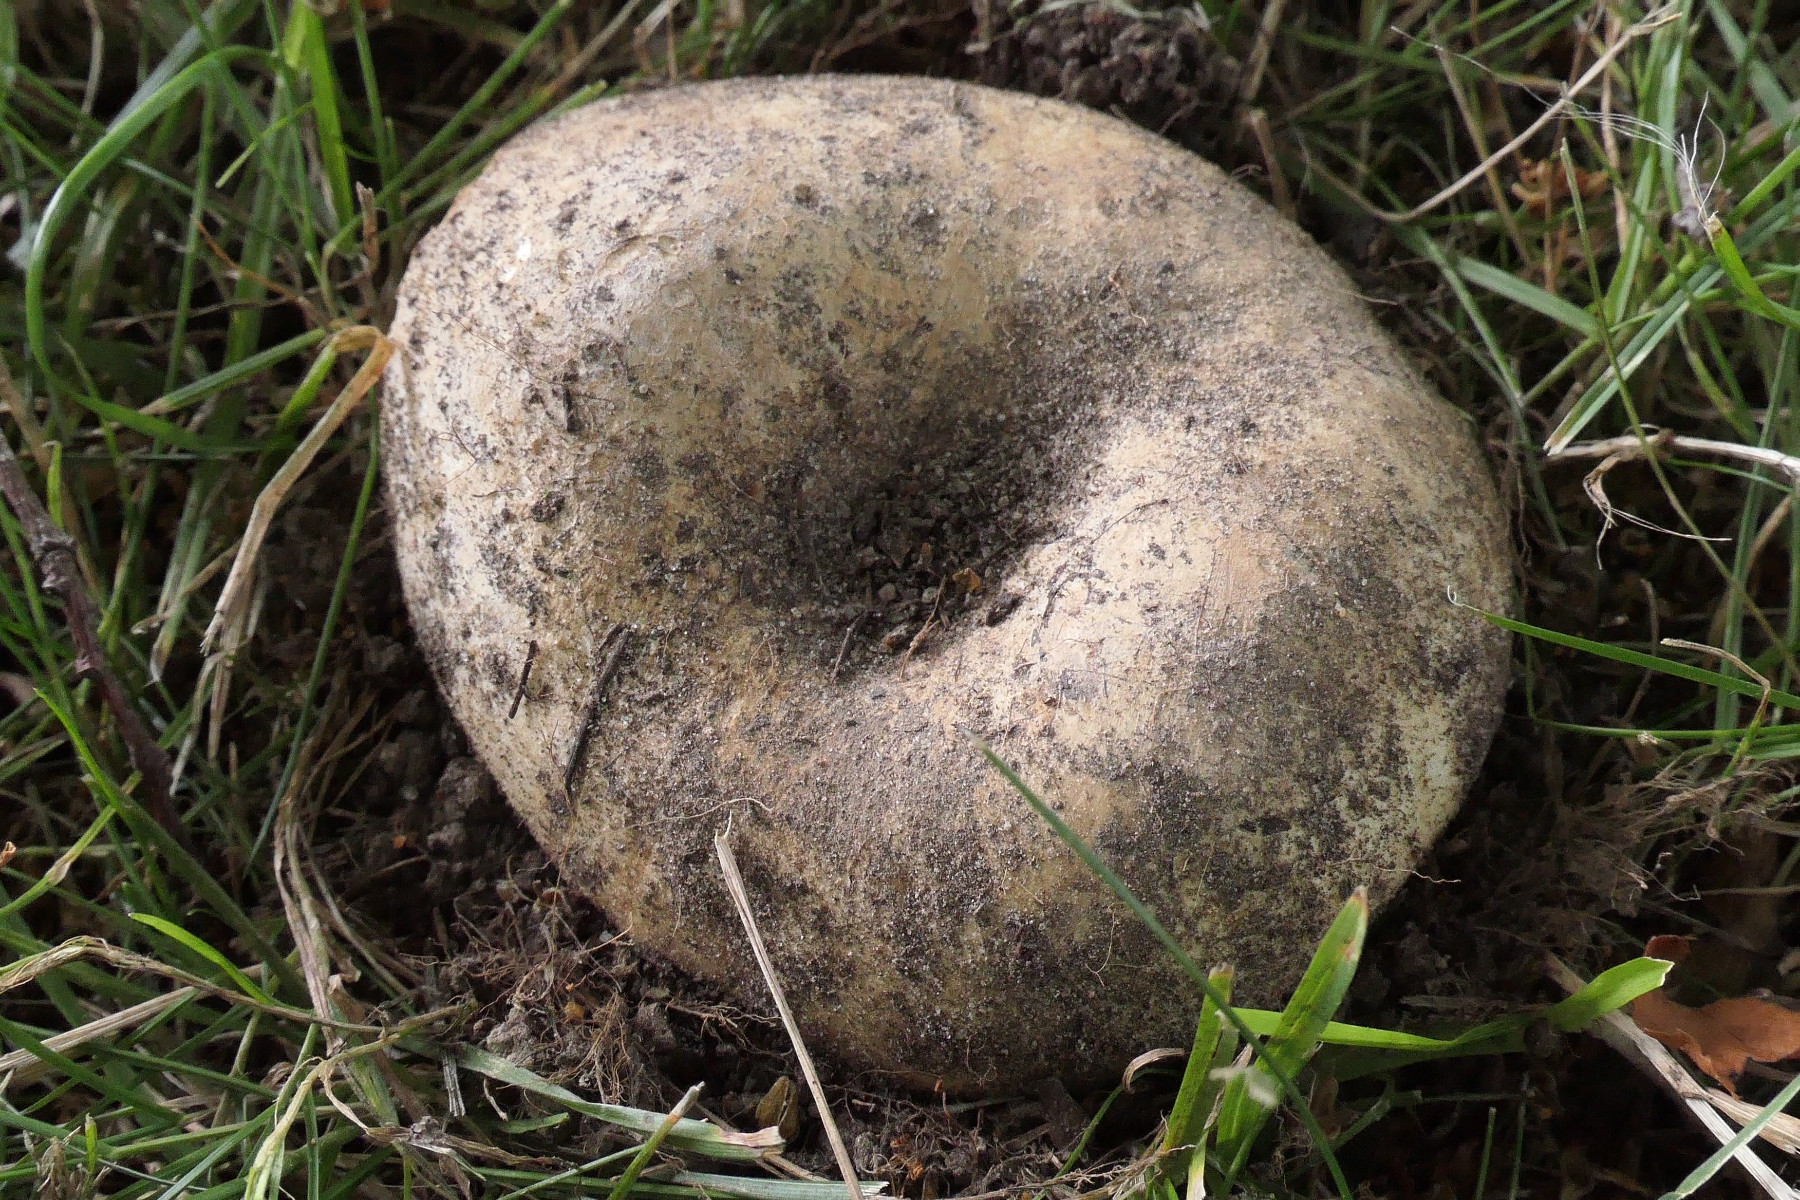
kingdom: Fungi
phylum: Basidiomycota
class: Agaricomycetes
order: Russulales
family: Russulaceae
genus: Russula
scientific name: Russula delica
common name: almindelig tragt-skørhat
